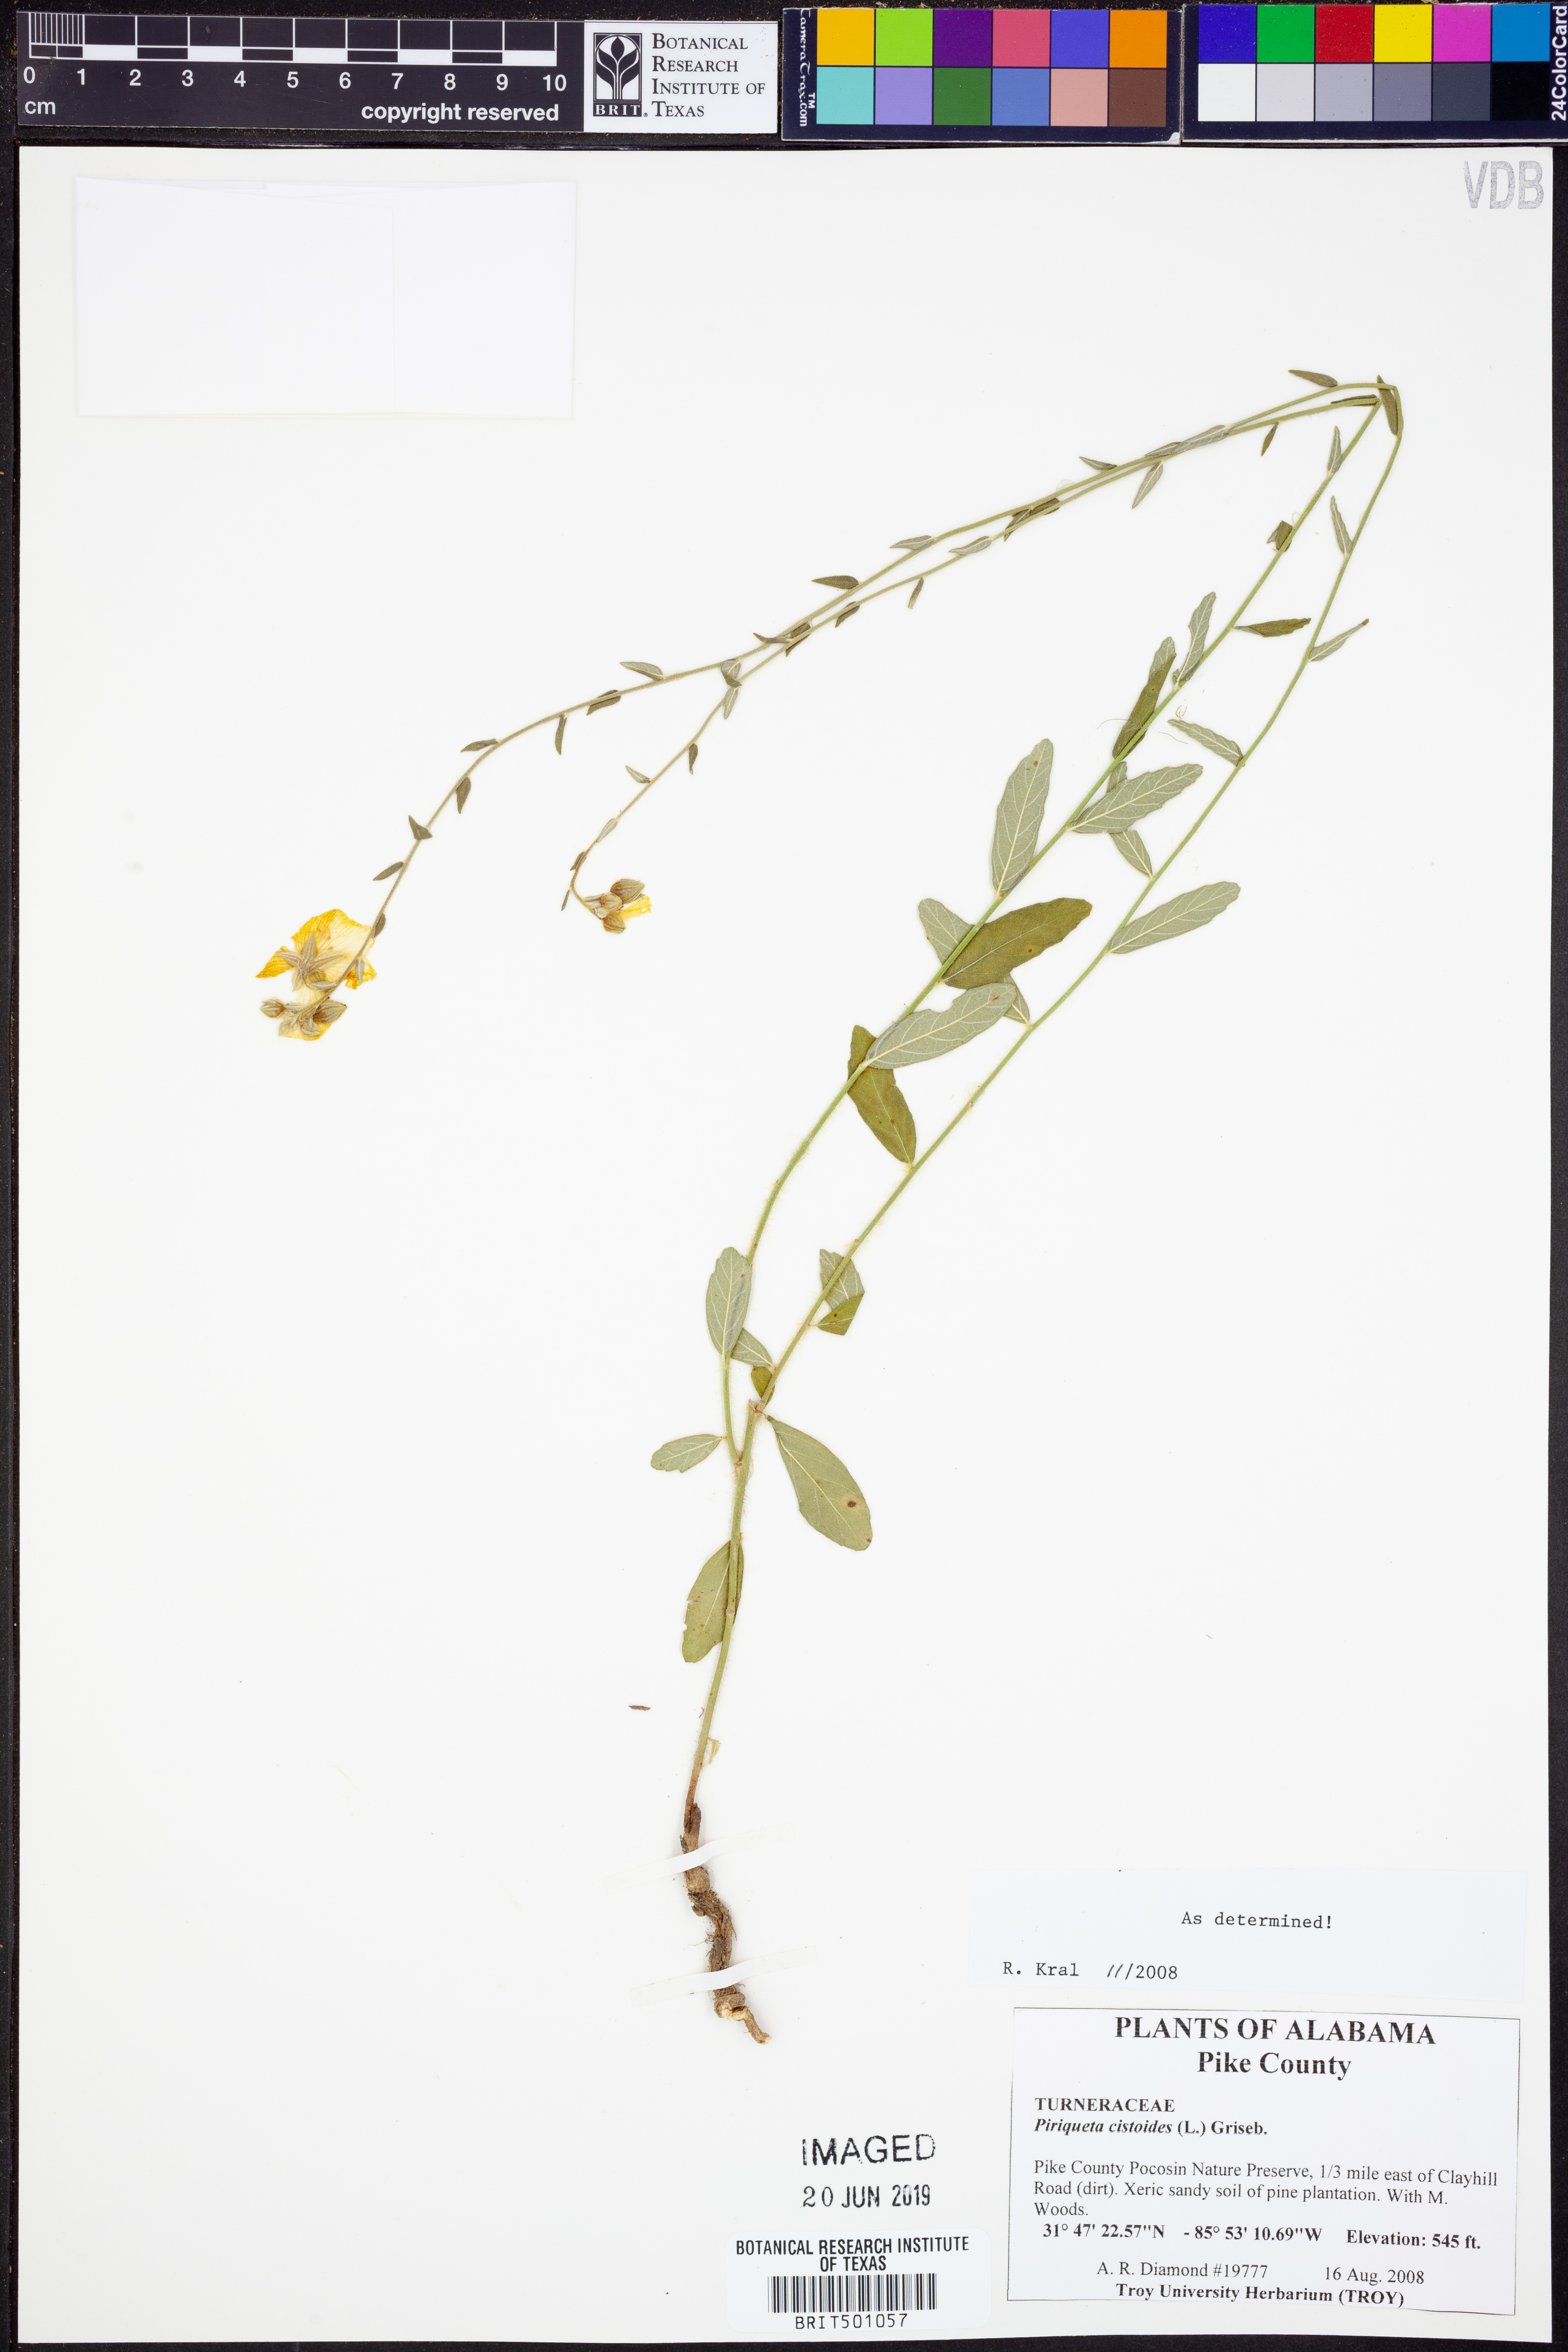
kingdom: Plantae
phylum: Tracheophyta
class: Magnoliopsida
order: Malpighiales
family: Turneraceae
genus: Piriqueta
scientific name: Piriqueta cistoides
